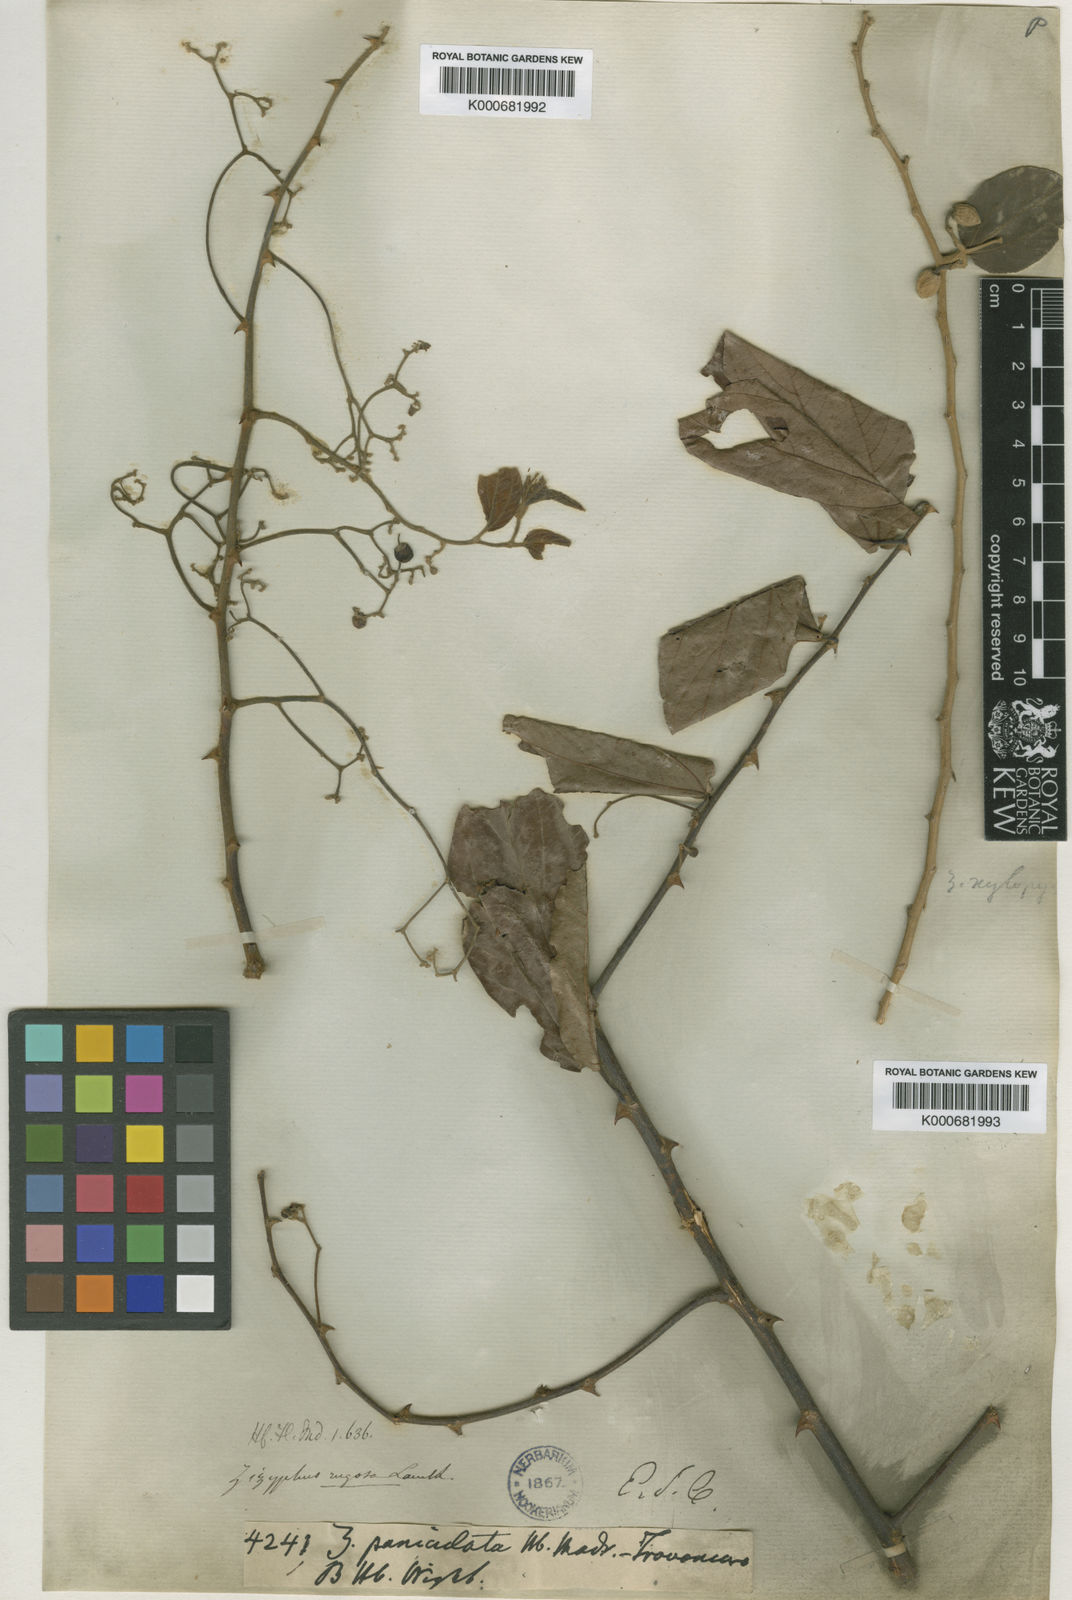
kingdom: Plantae
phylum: Tracheophyta
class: Magnoliopsida
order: Rosales
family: Rhamnaceae
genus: Ziziphus
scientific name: Ziziphus rugosa
